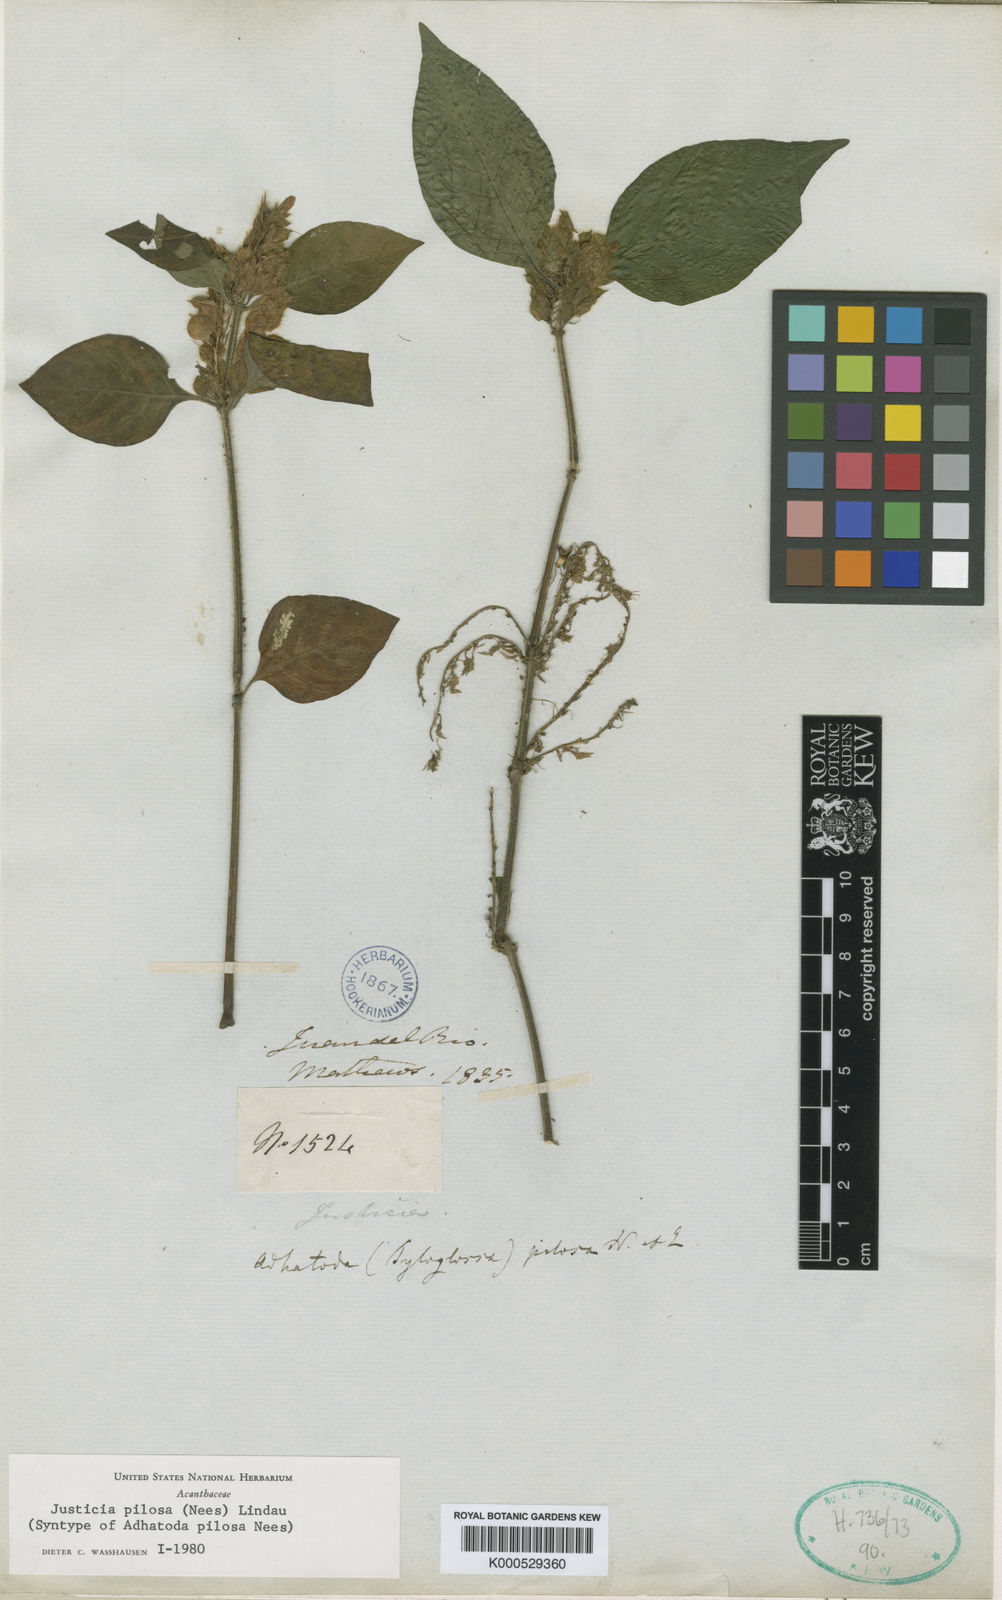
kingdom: Plantae
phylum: Tracheophyta
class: Magnoliopsida
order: Lamiales
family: Acanthaceae
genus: Justicia
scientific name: Justicia pilosa
